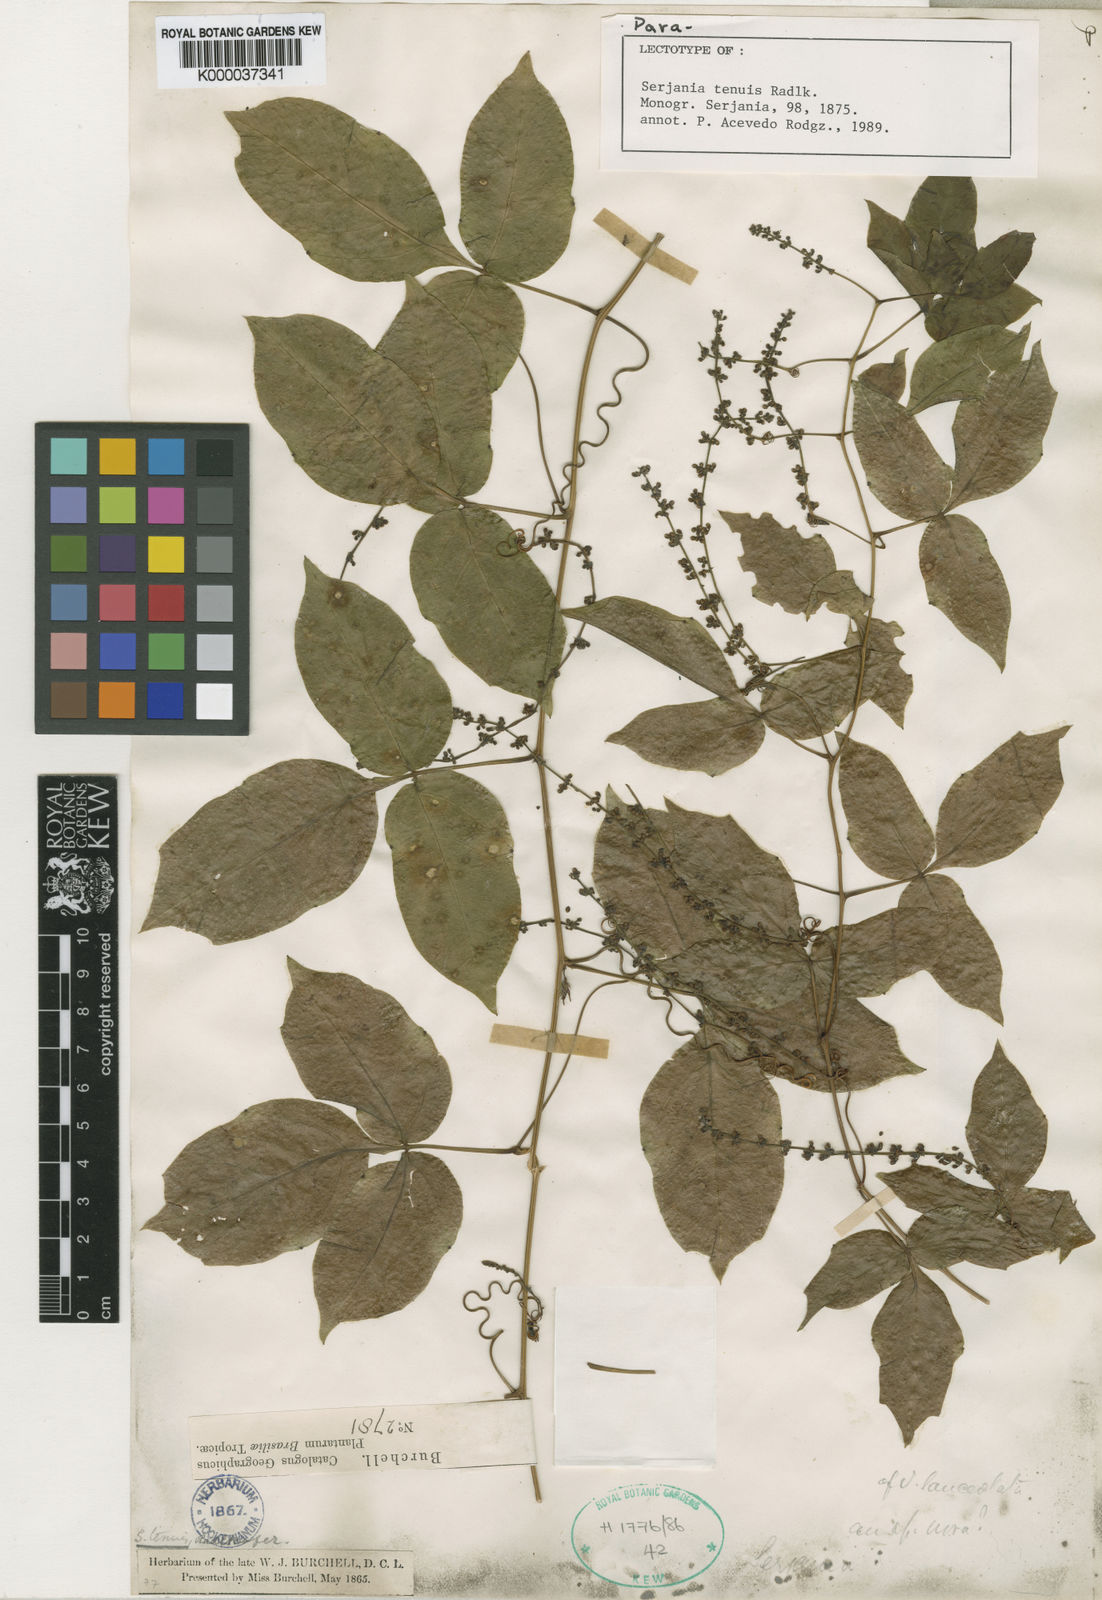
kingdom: Plantae
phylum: Tracheophyta
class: Magnoliopsida
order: Sapindales
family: Sapindaceae
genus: Serjania
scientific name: Serjania tenuis
